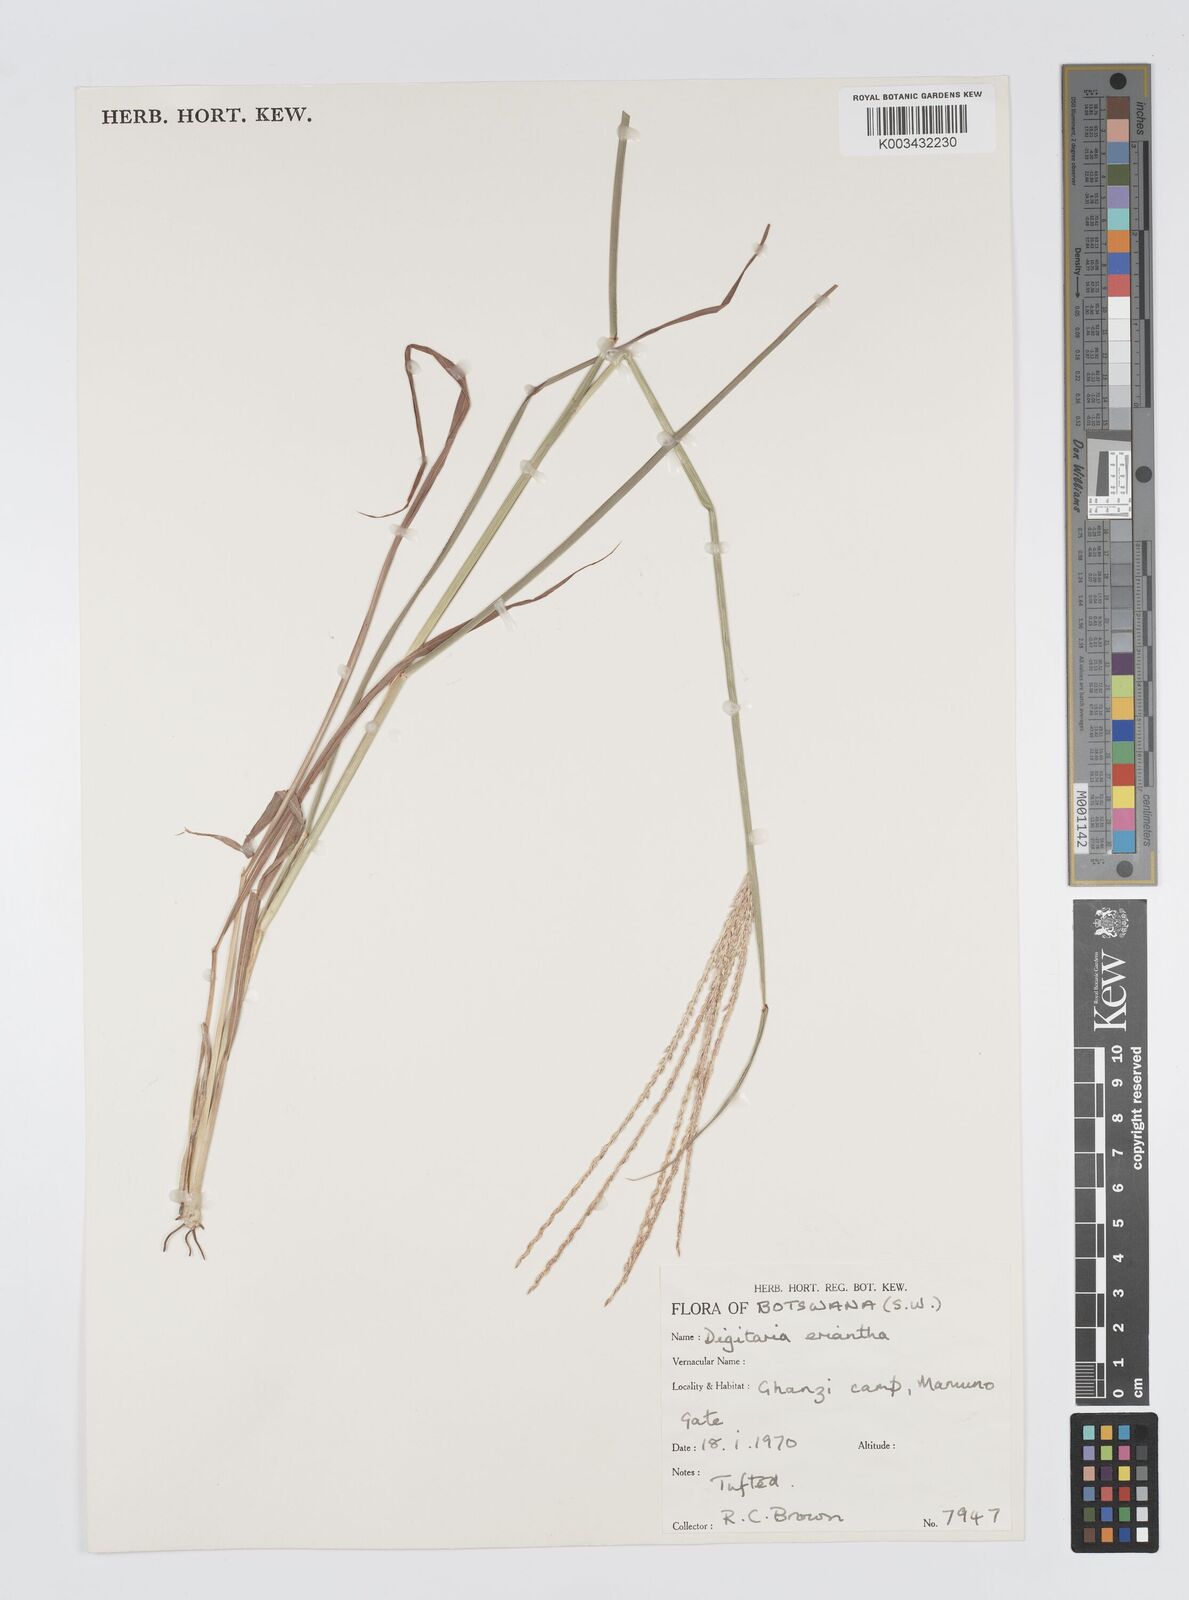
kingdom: Plantae
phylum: Tracheophyta
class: Liliopsida
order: Poales
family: Poaceae
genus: Digitaria
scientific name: Digitaria milanjiana
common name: Madagascar crabgrass
